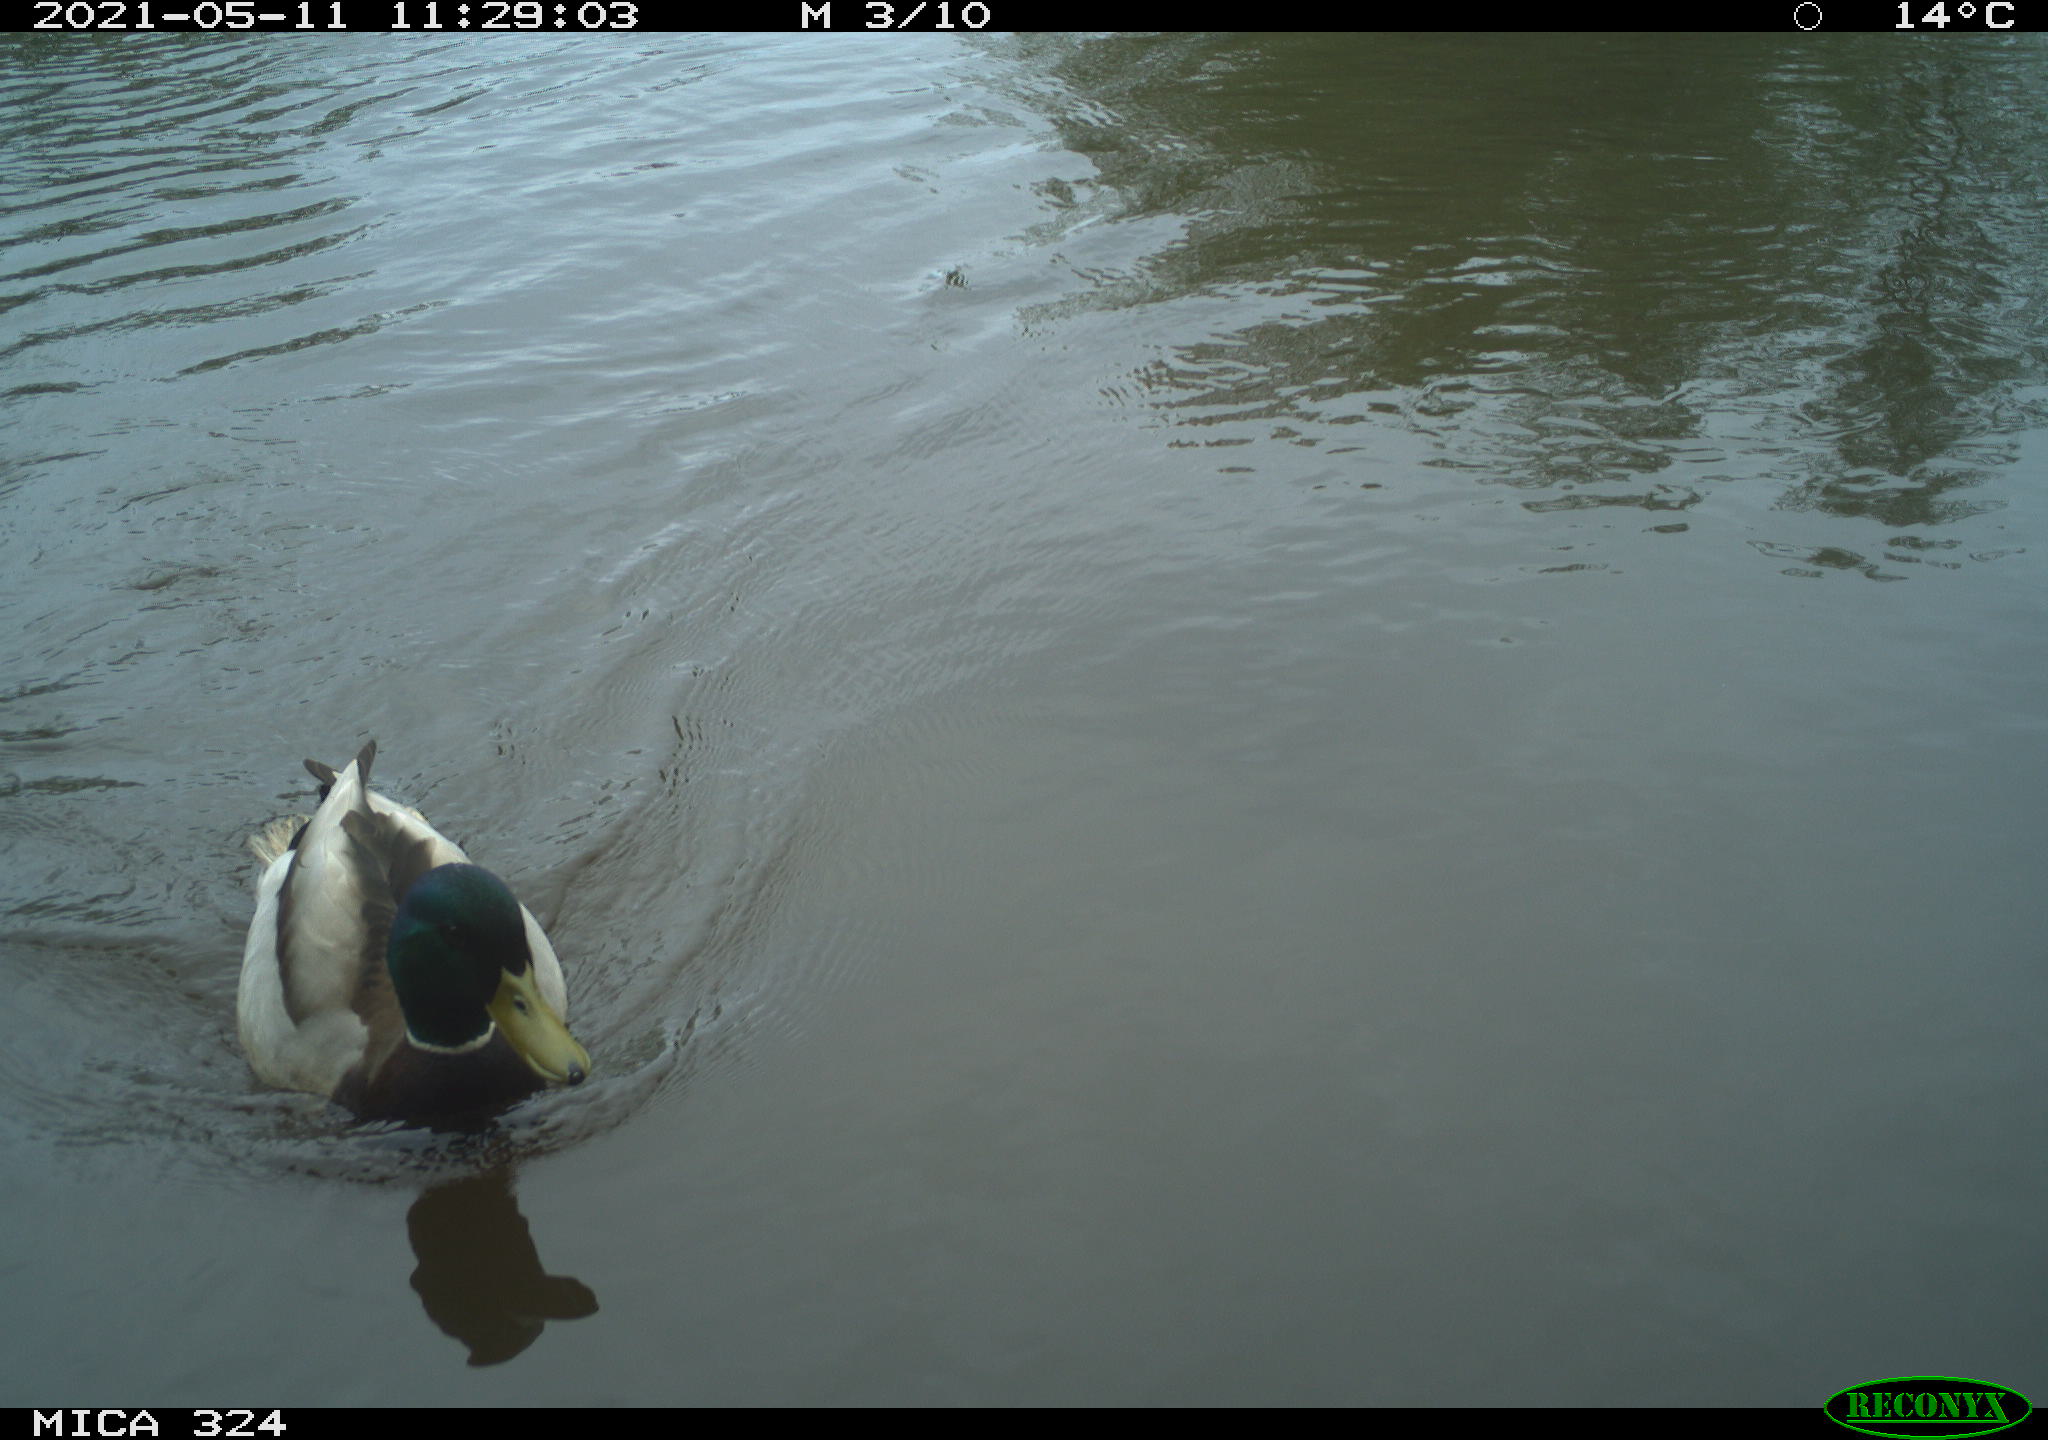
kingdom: Animalia
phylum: Chordata
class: Aves
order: Anseriformes
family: Anatidae
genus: Anas
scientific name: Anas platyrhynchos
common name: Mallard
